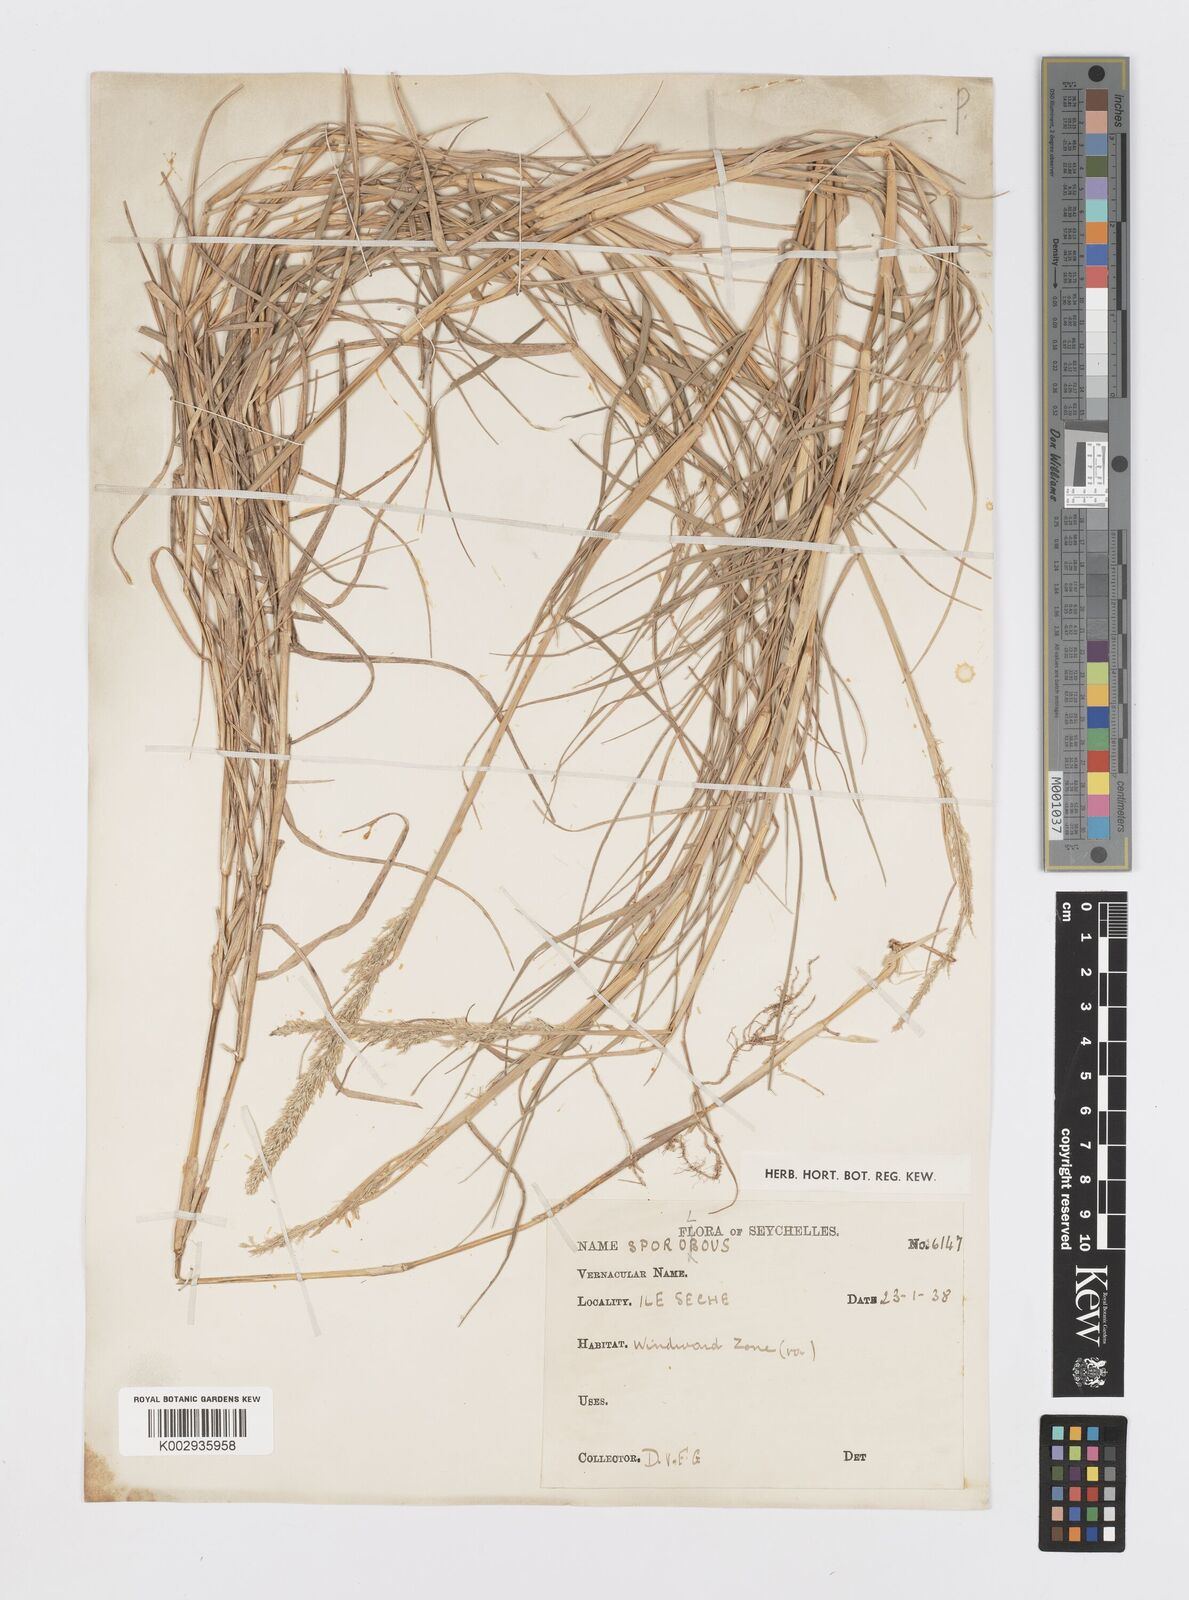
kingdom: Plantae
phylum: Tracheophyta
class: Liliopsida
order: Poales
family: Poaceae
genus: Sporobolus
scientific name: Sporobolus virginicus
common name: Beach dropseed
